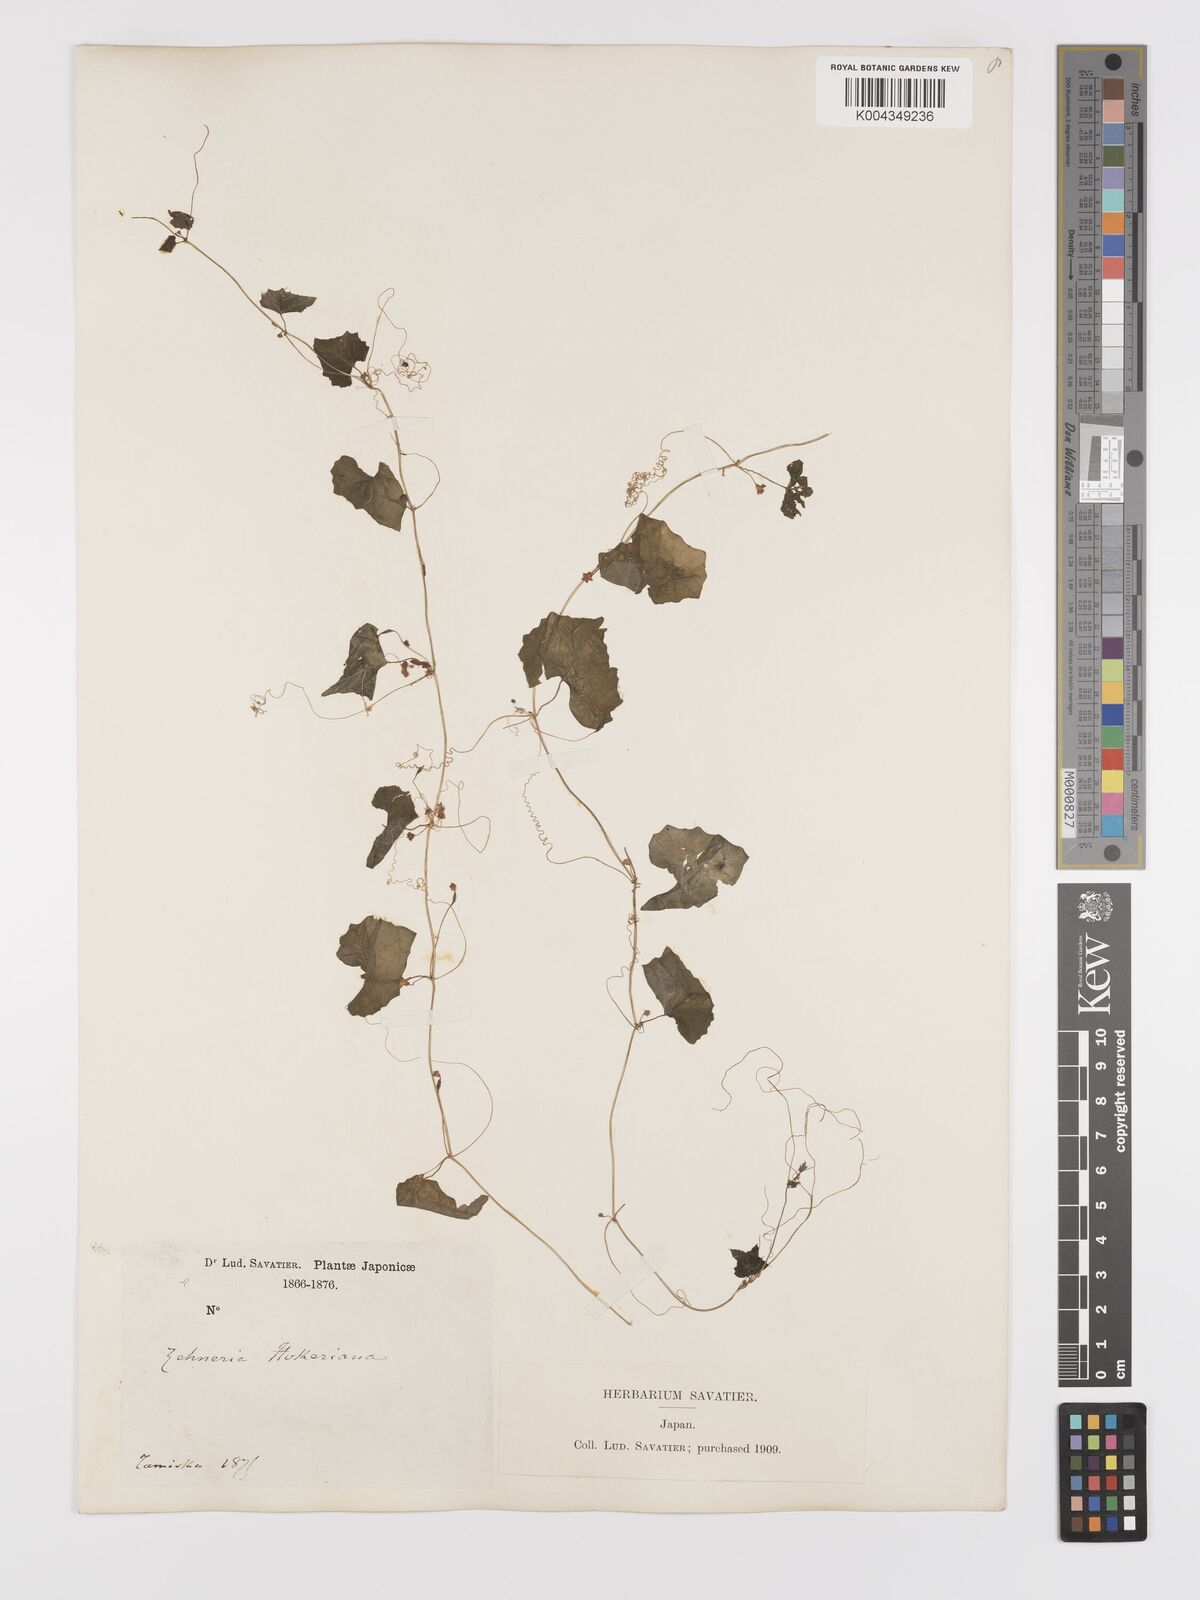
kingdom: Plantae
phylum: Tracheophyta
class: Magnoliopsida
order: Cucurbitales
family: Cucurbitaceae
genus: Zehneria
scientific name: Zehneria japonica
